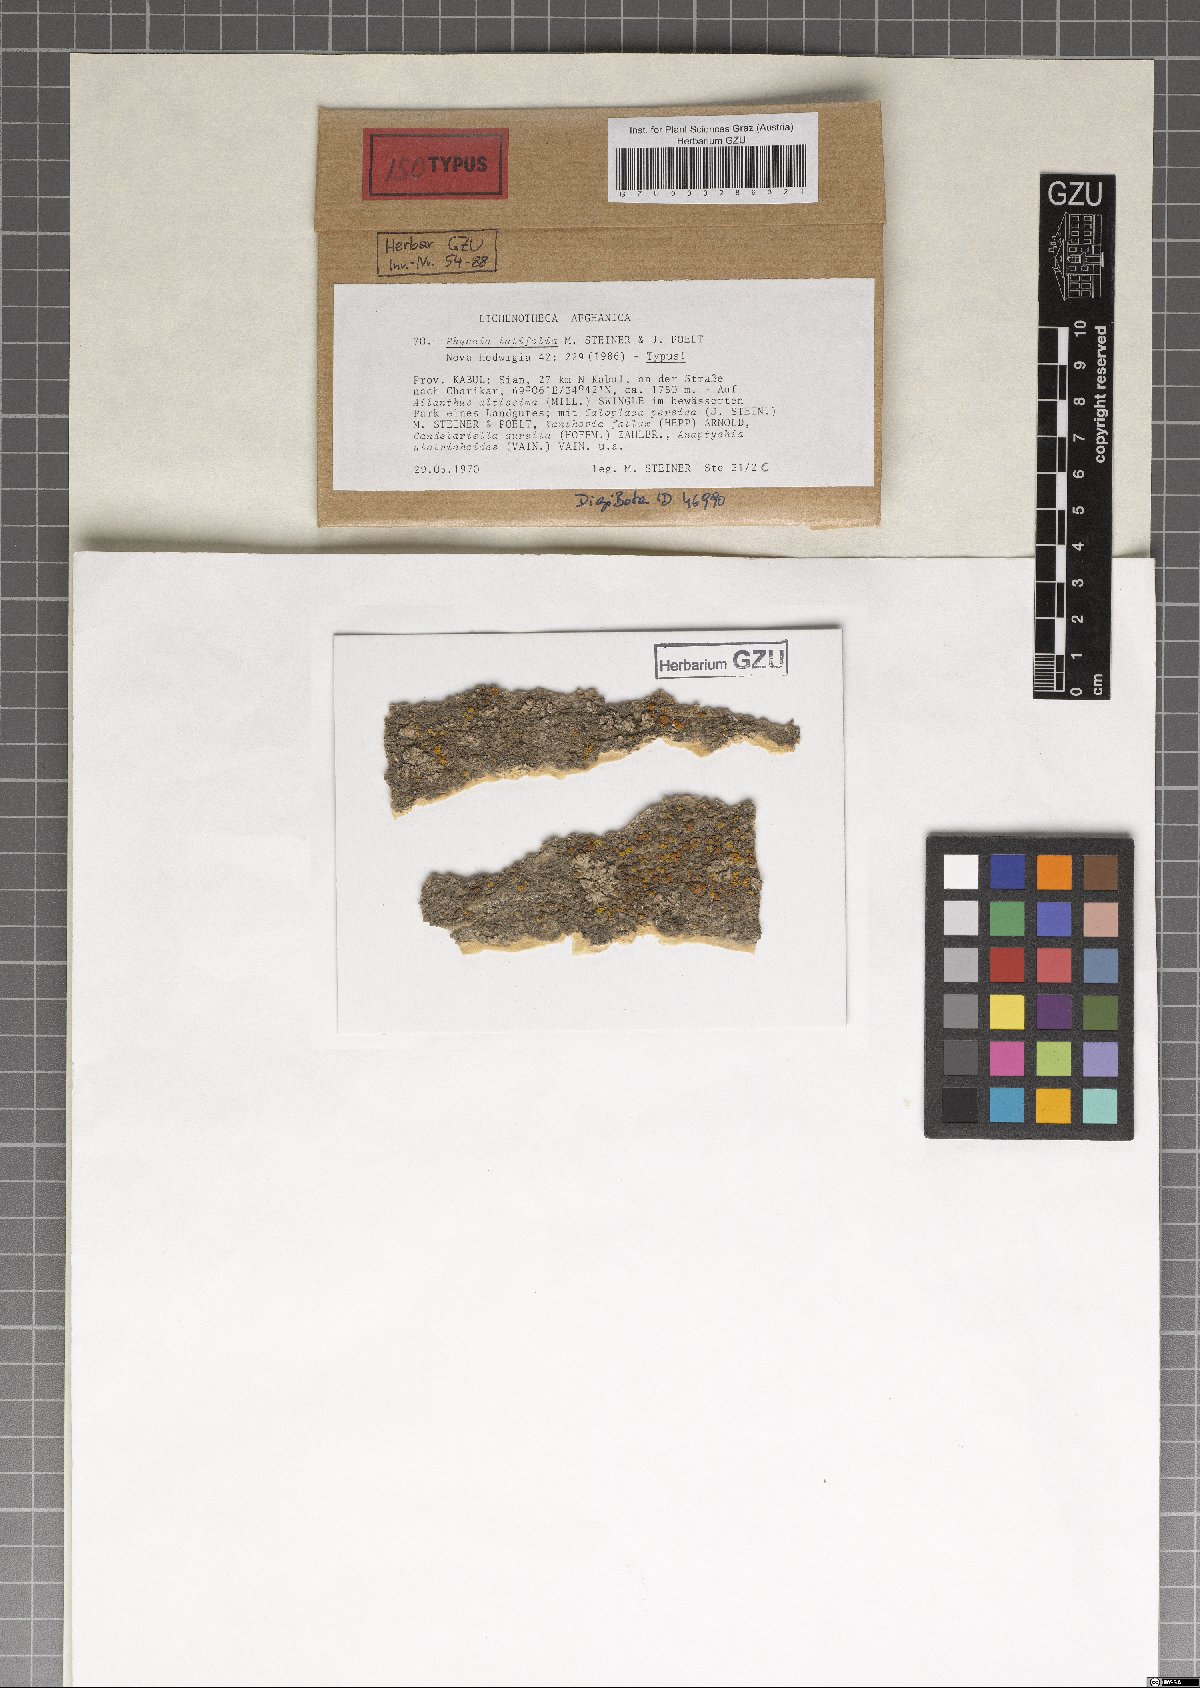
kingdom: Fungi
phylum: Ascomycota
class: Lecanoromycetes
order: Caliciales
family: Physciaceae
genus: Physcia
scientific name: Physcia
